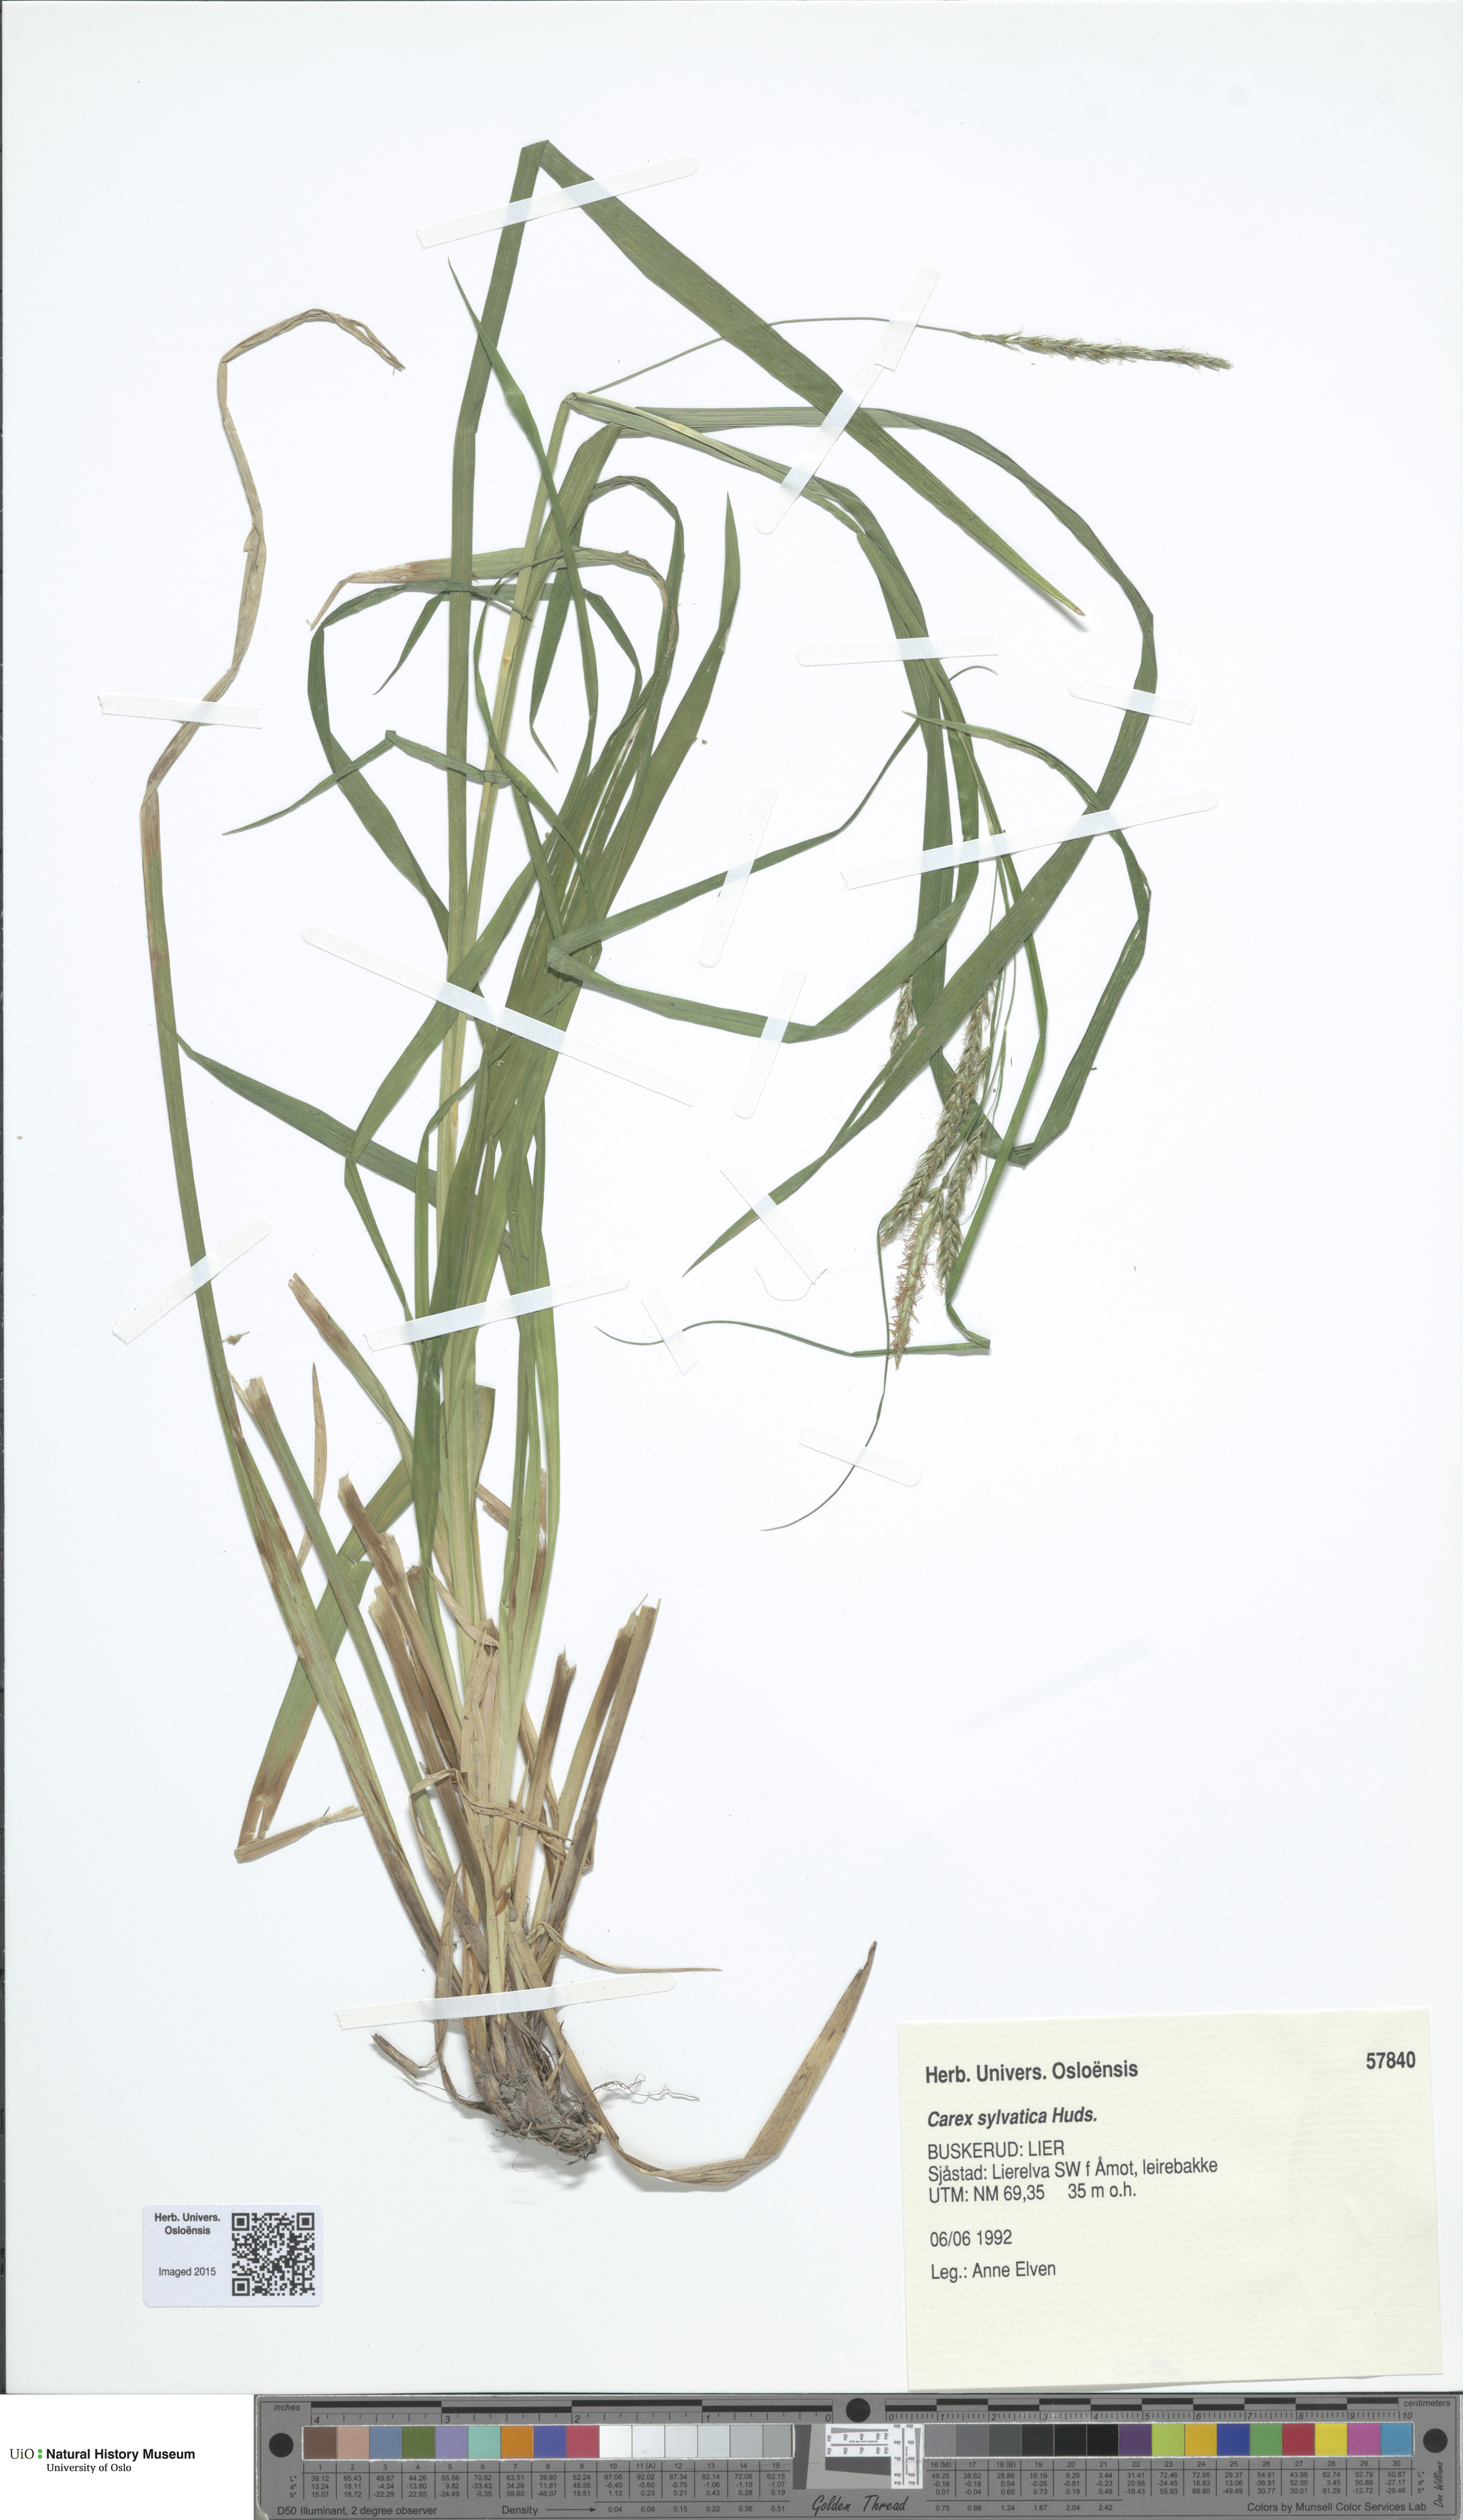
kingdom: Plantae
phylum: Tracheophyta
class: Liliopsida
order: Poales
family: Cyperaceae
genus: Carex
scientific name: Carex sylvatica
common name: Wood-sedge
